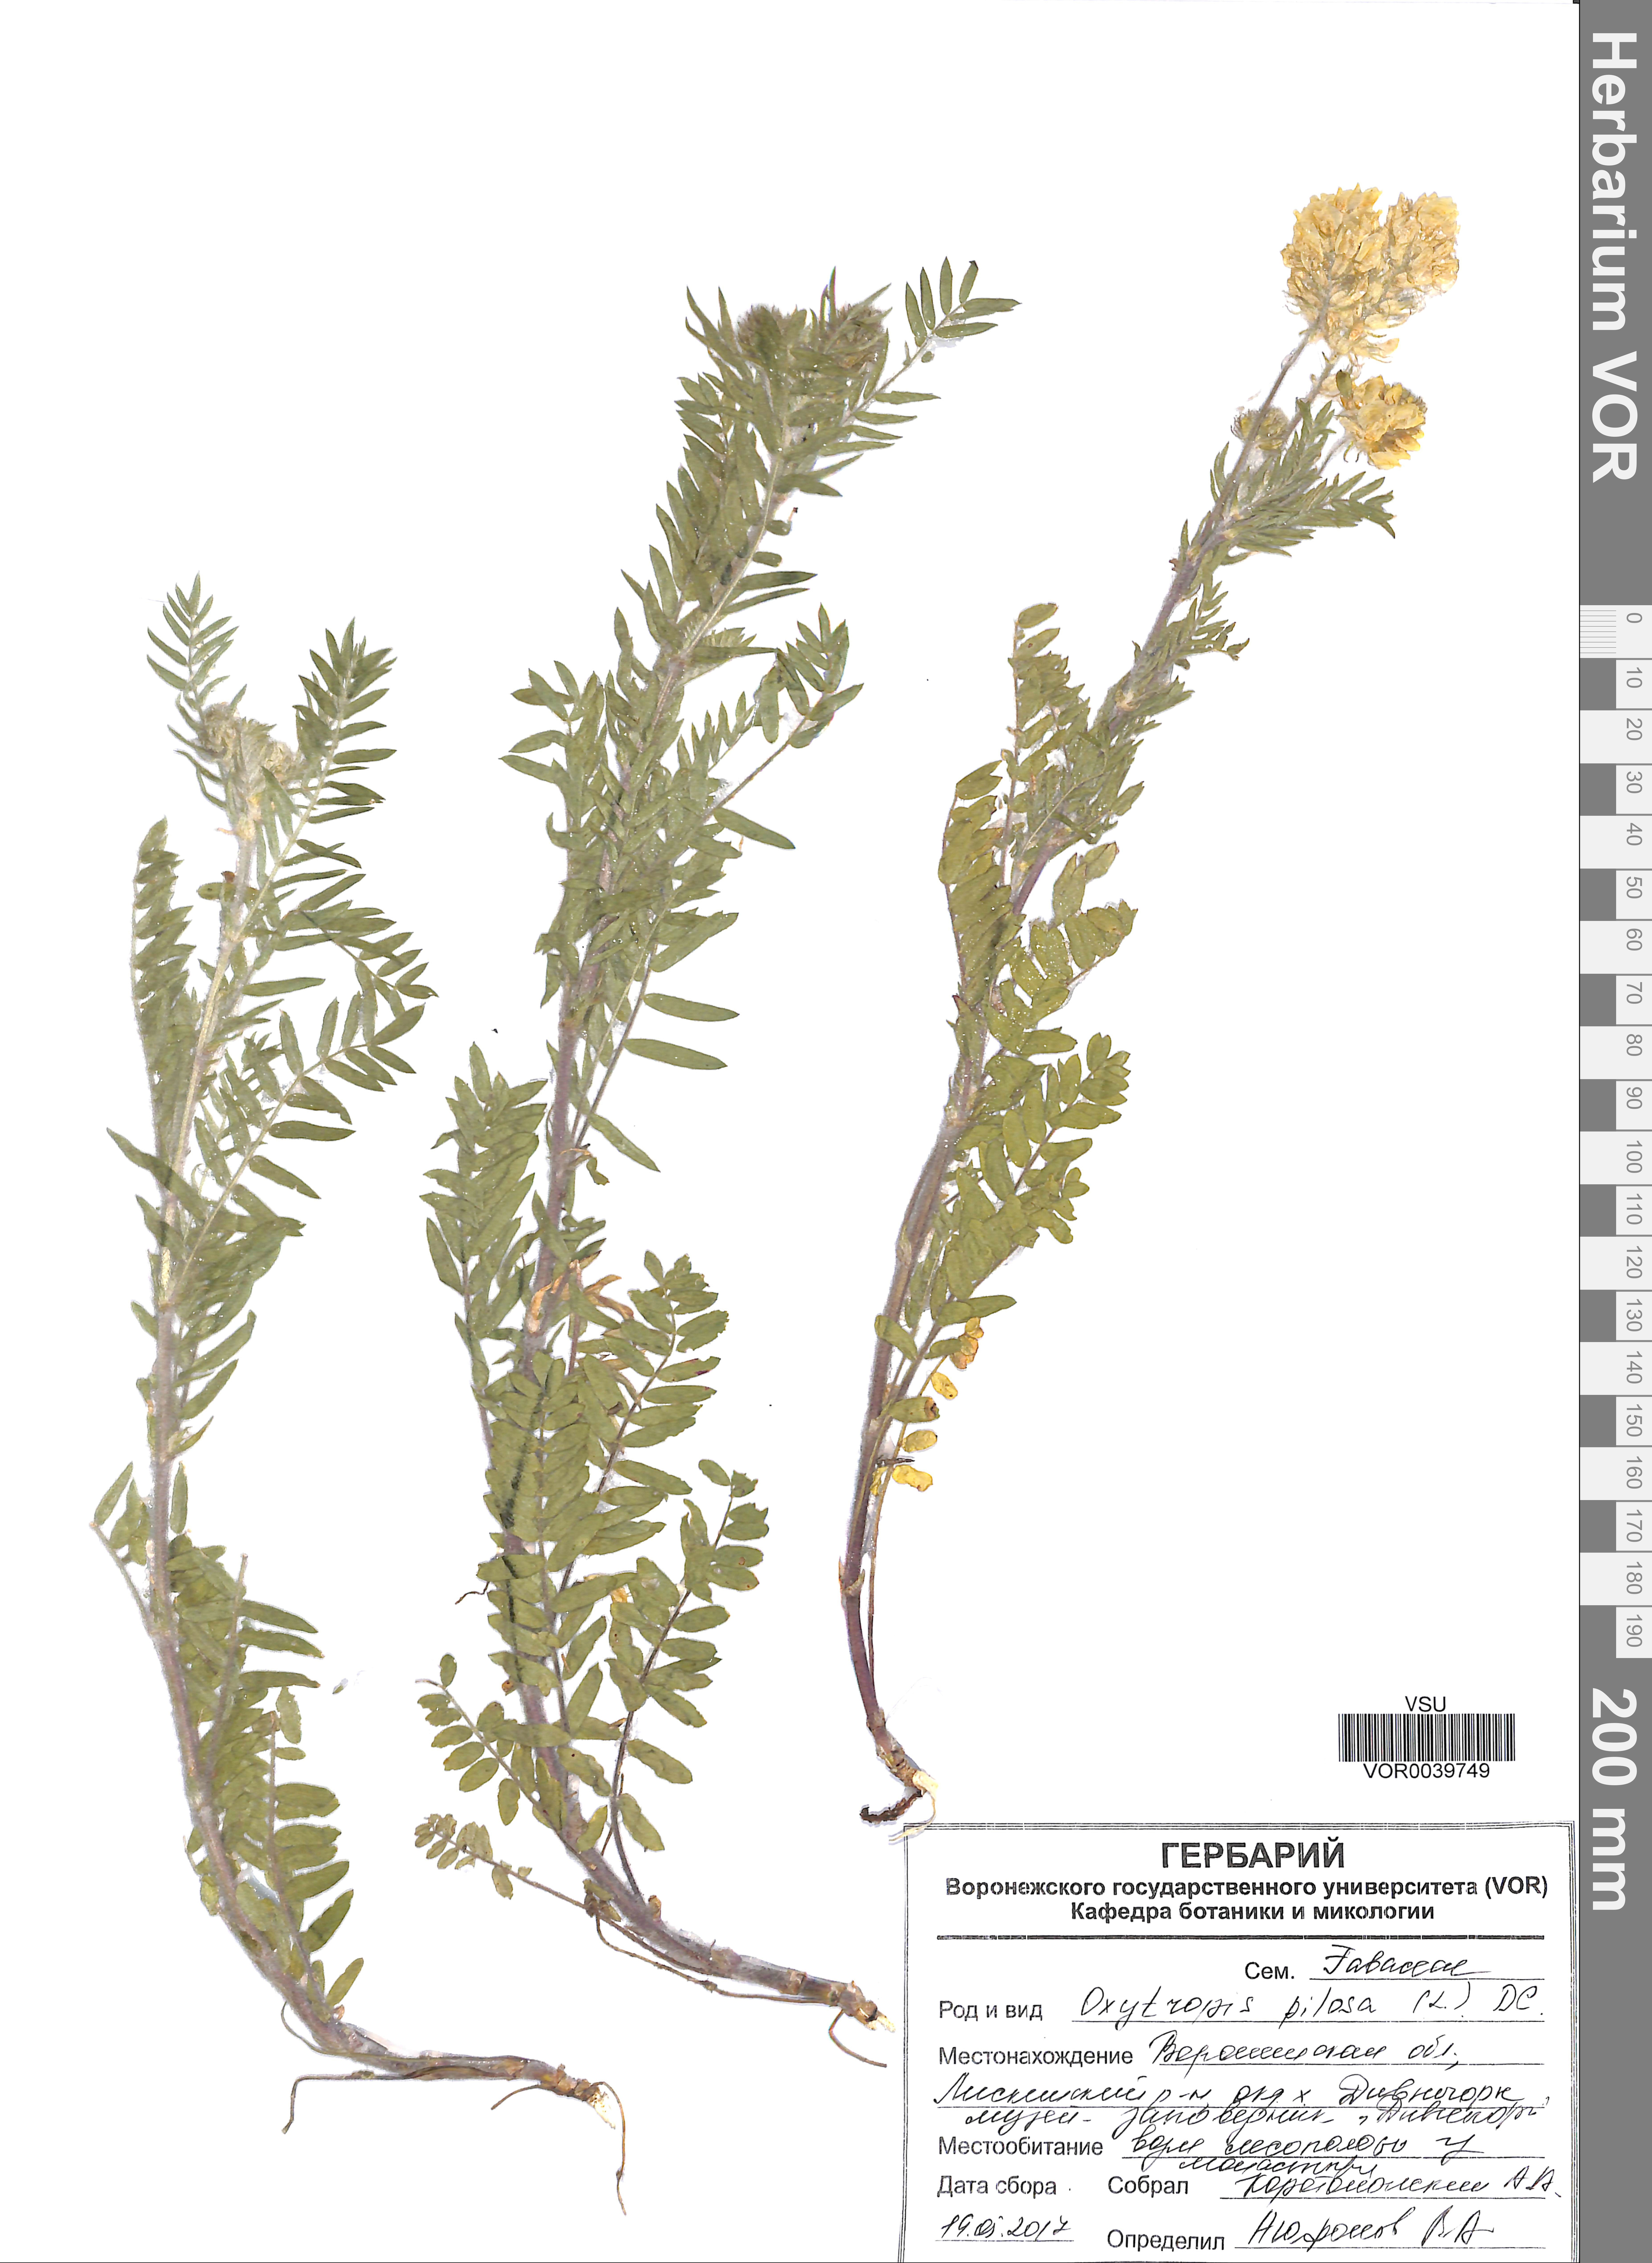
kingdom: Plantae
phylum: Tracheophyta
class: Magnoliopsida
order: Fabales
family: Fabaceae
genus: Oxytropis
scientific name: Oxytropis pilosa
